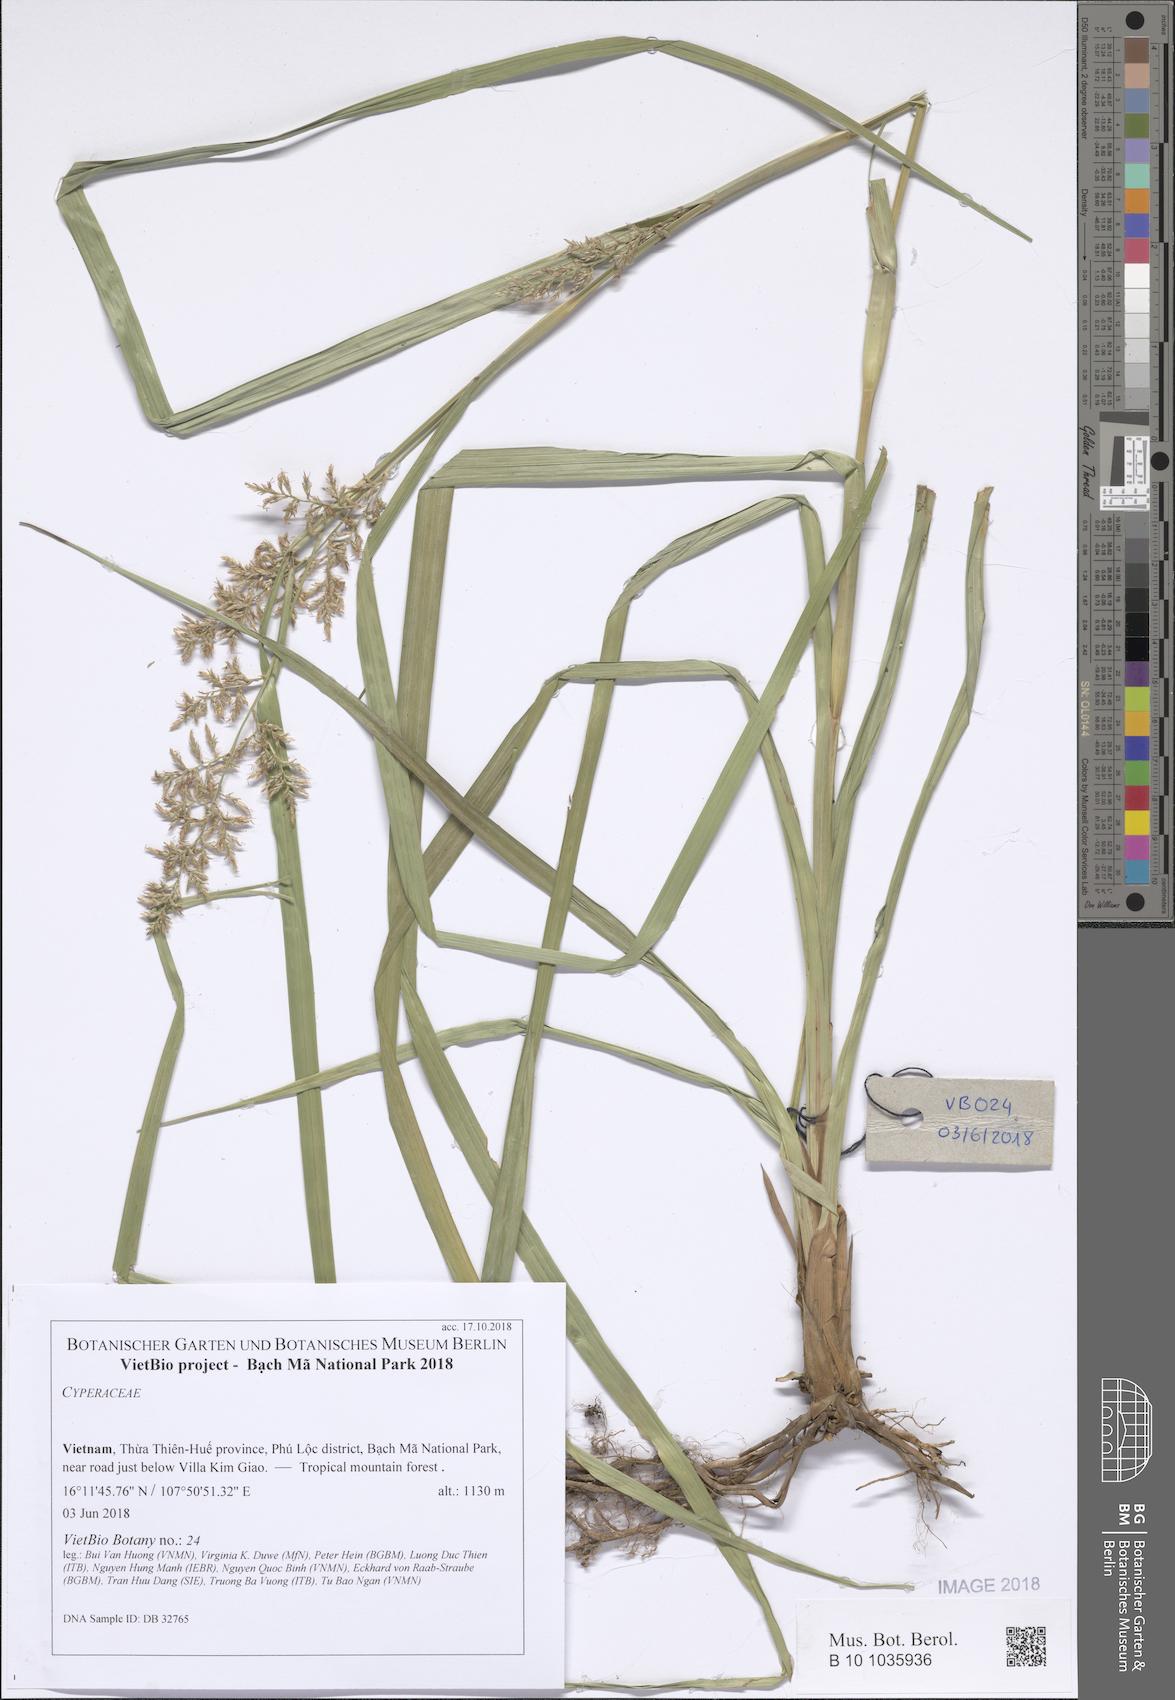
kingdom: Plantae
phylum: Tracheophyta
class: Liliopsida
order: Poales
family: Cyperaceae
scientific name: Cyperaceae
